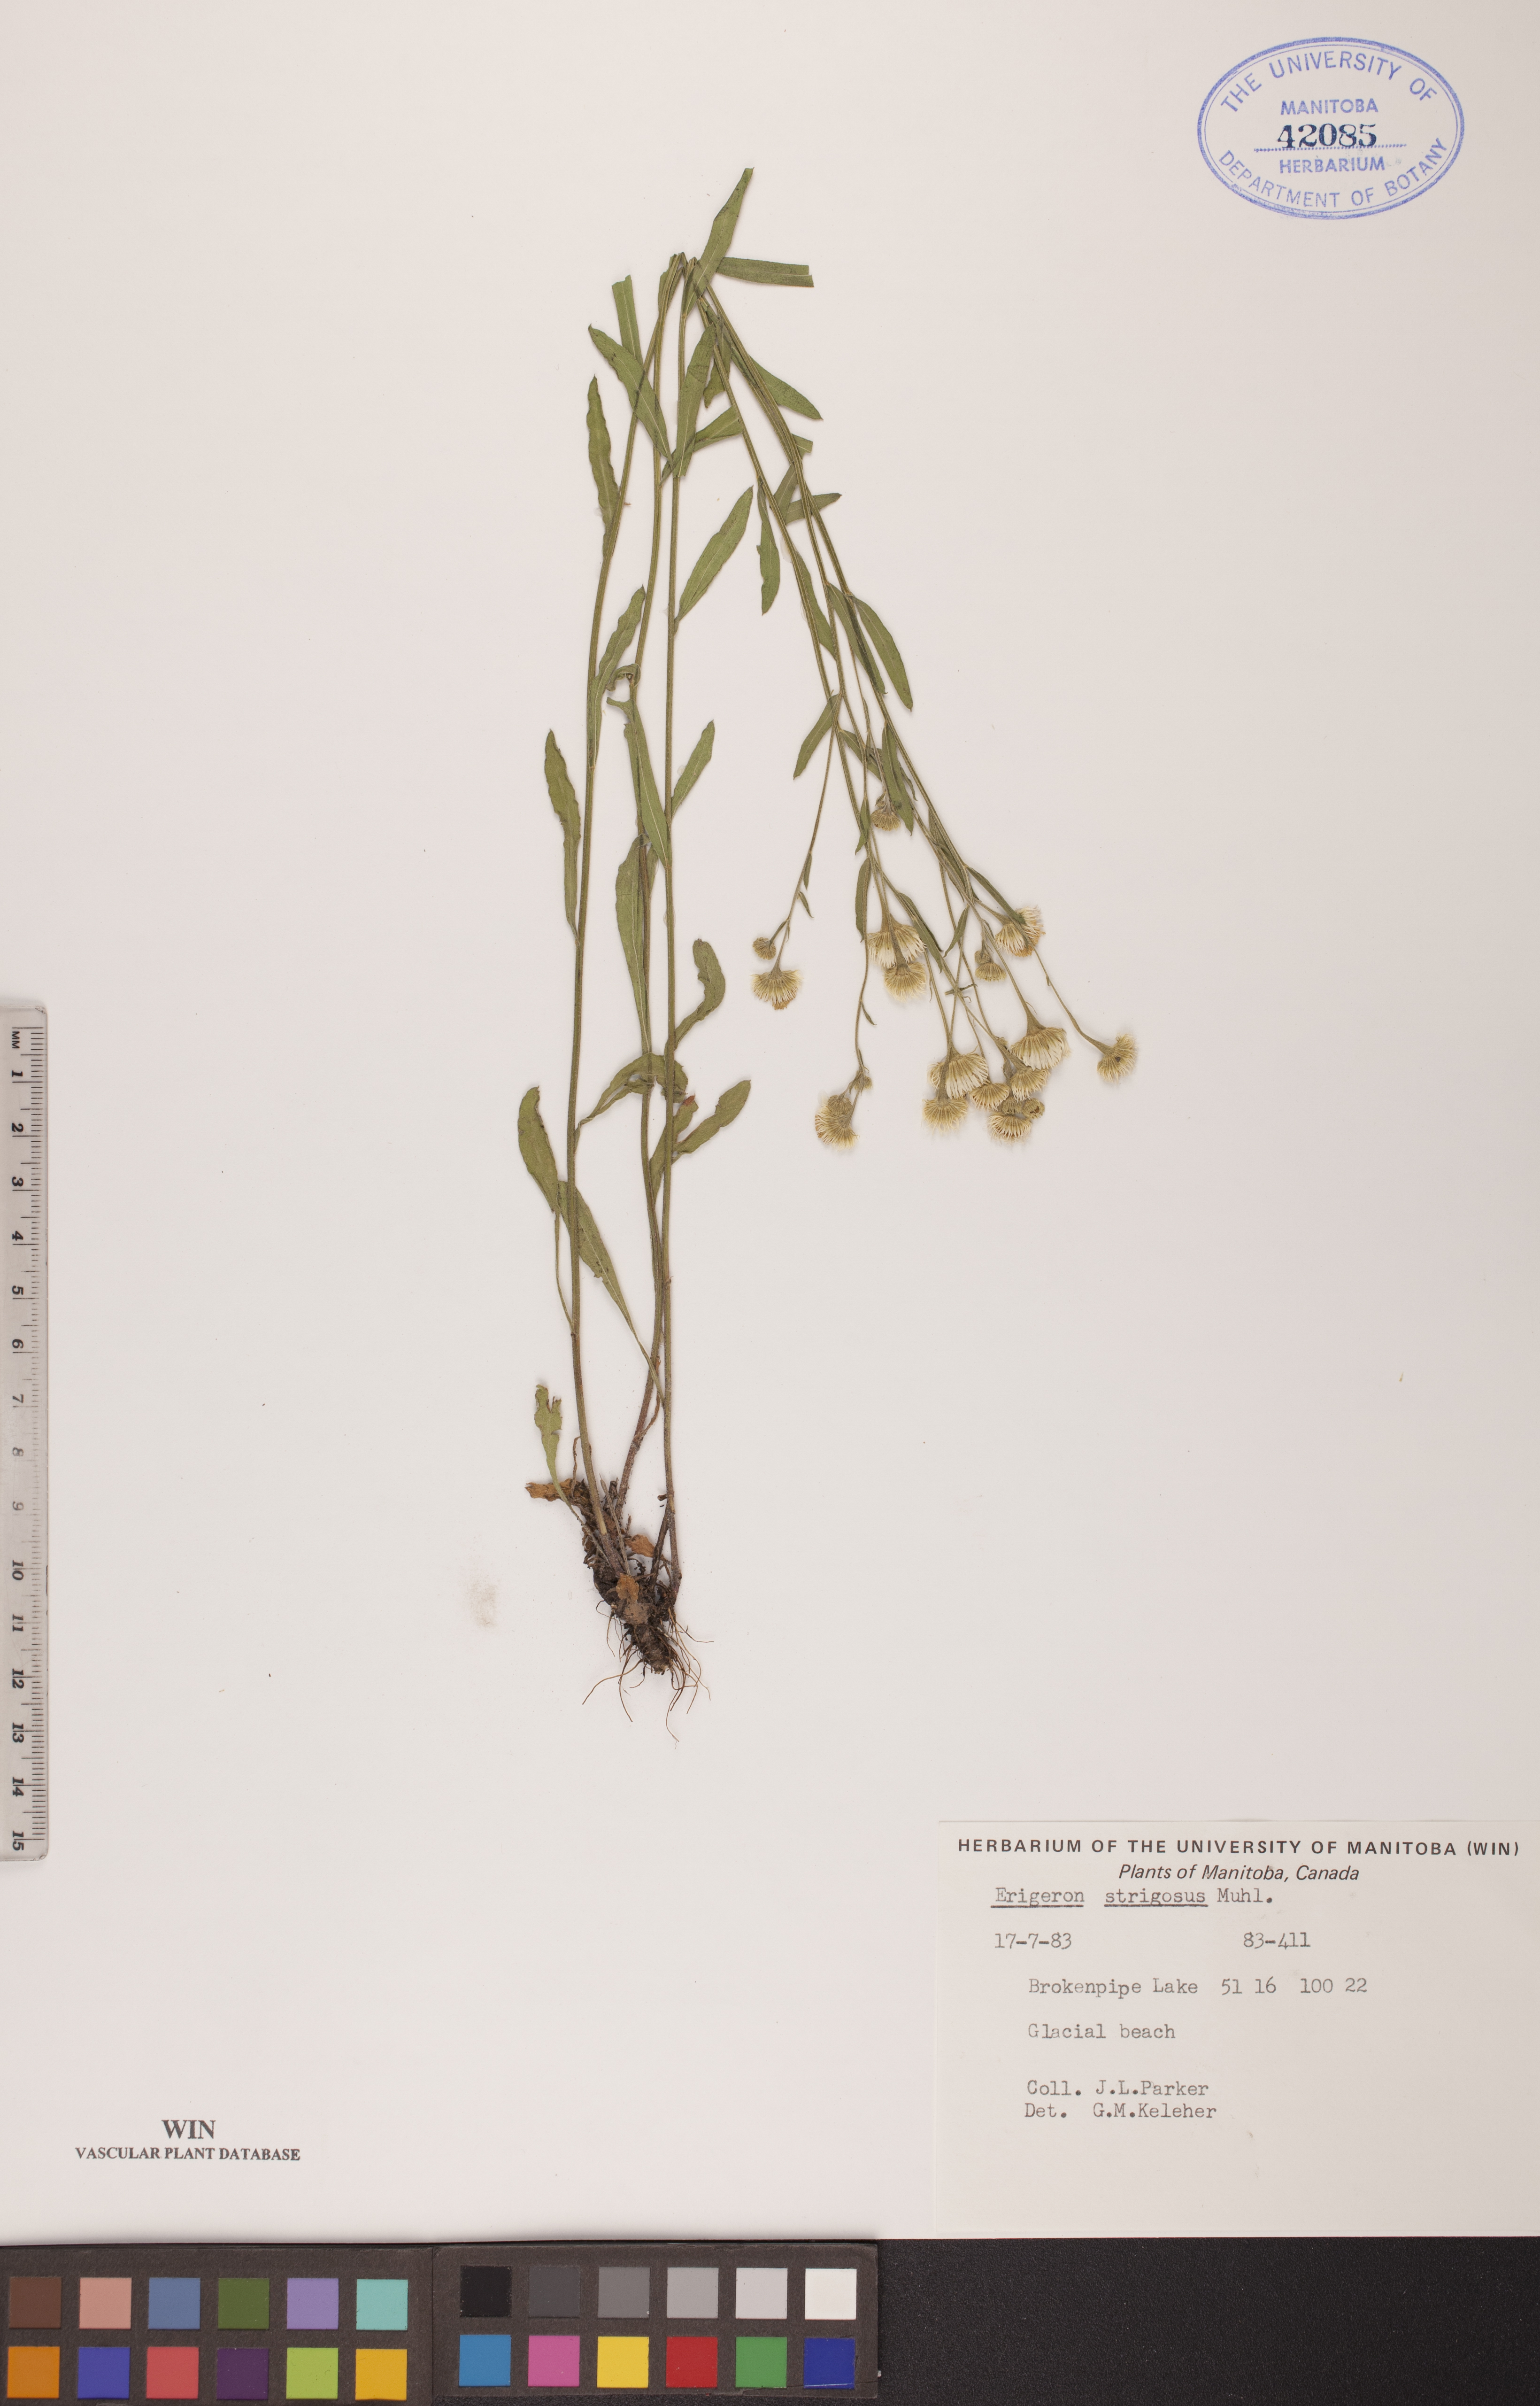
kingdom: Plantae
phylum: Tracheophyta
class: Magnoliopsida
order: Asterales
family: Asteraceae
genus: Erigeron
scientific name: Erigeron strigosus
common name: Common eastern fleabane
